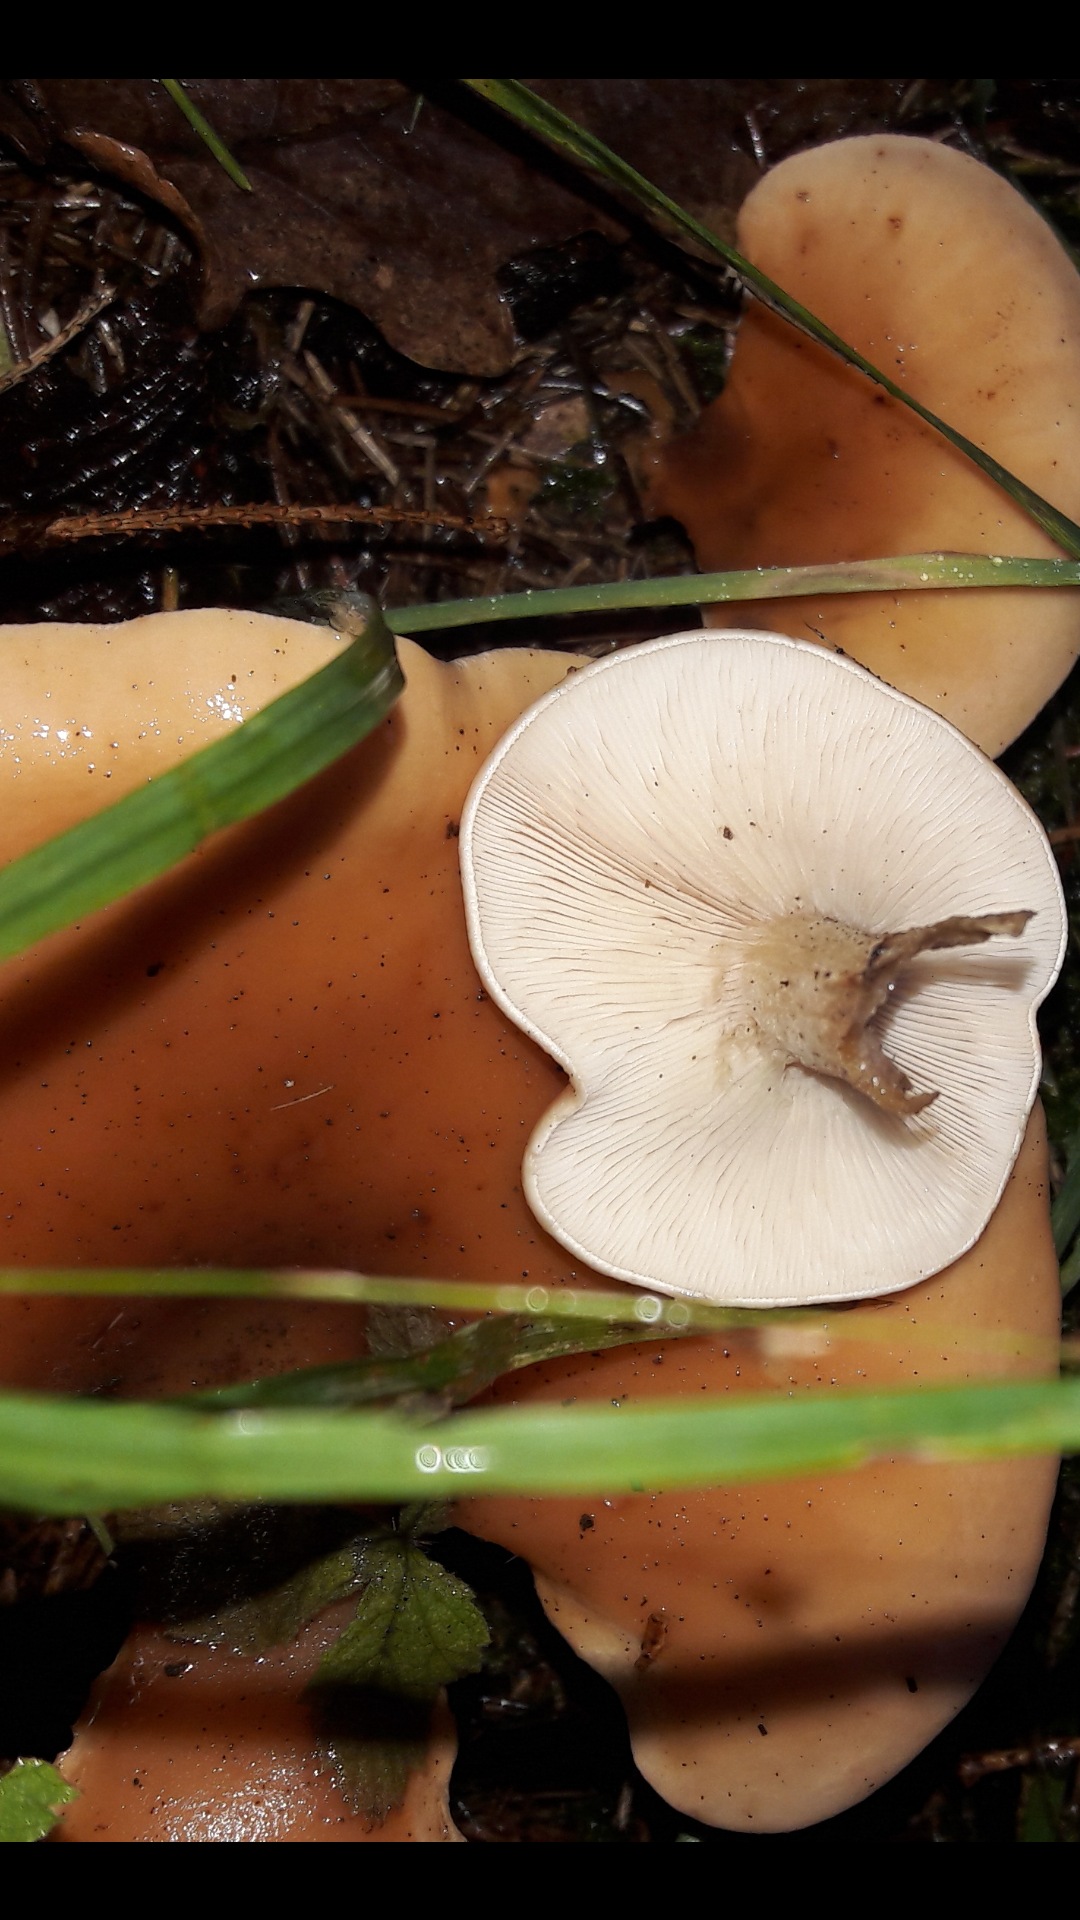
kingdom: Fungi
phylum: Basidiomycota
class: Agaricomycetes
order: Agaricales
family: Tricholomataceae
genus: Paralepista
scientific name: Paralepista flaccida
